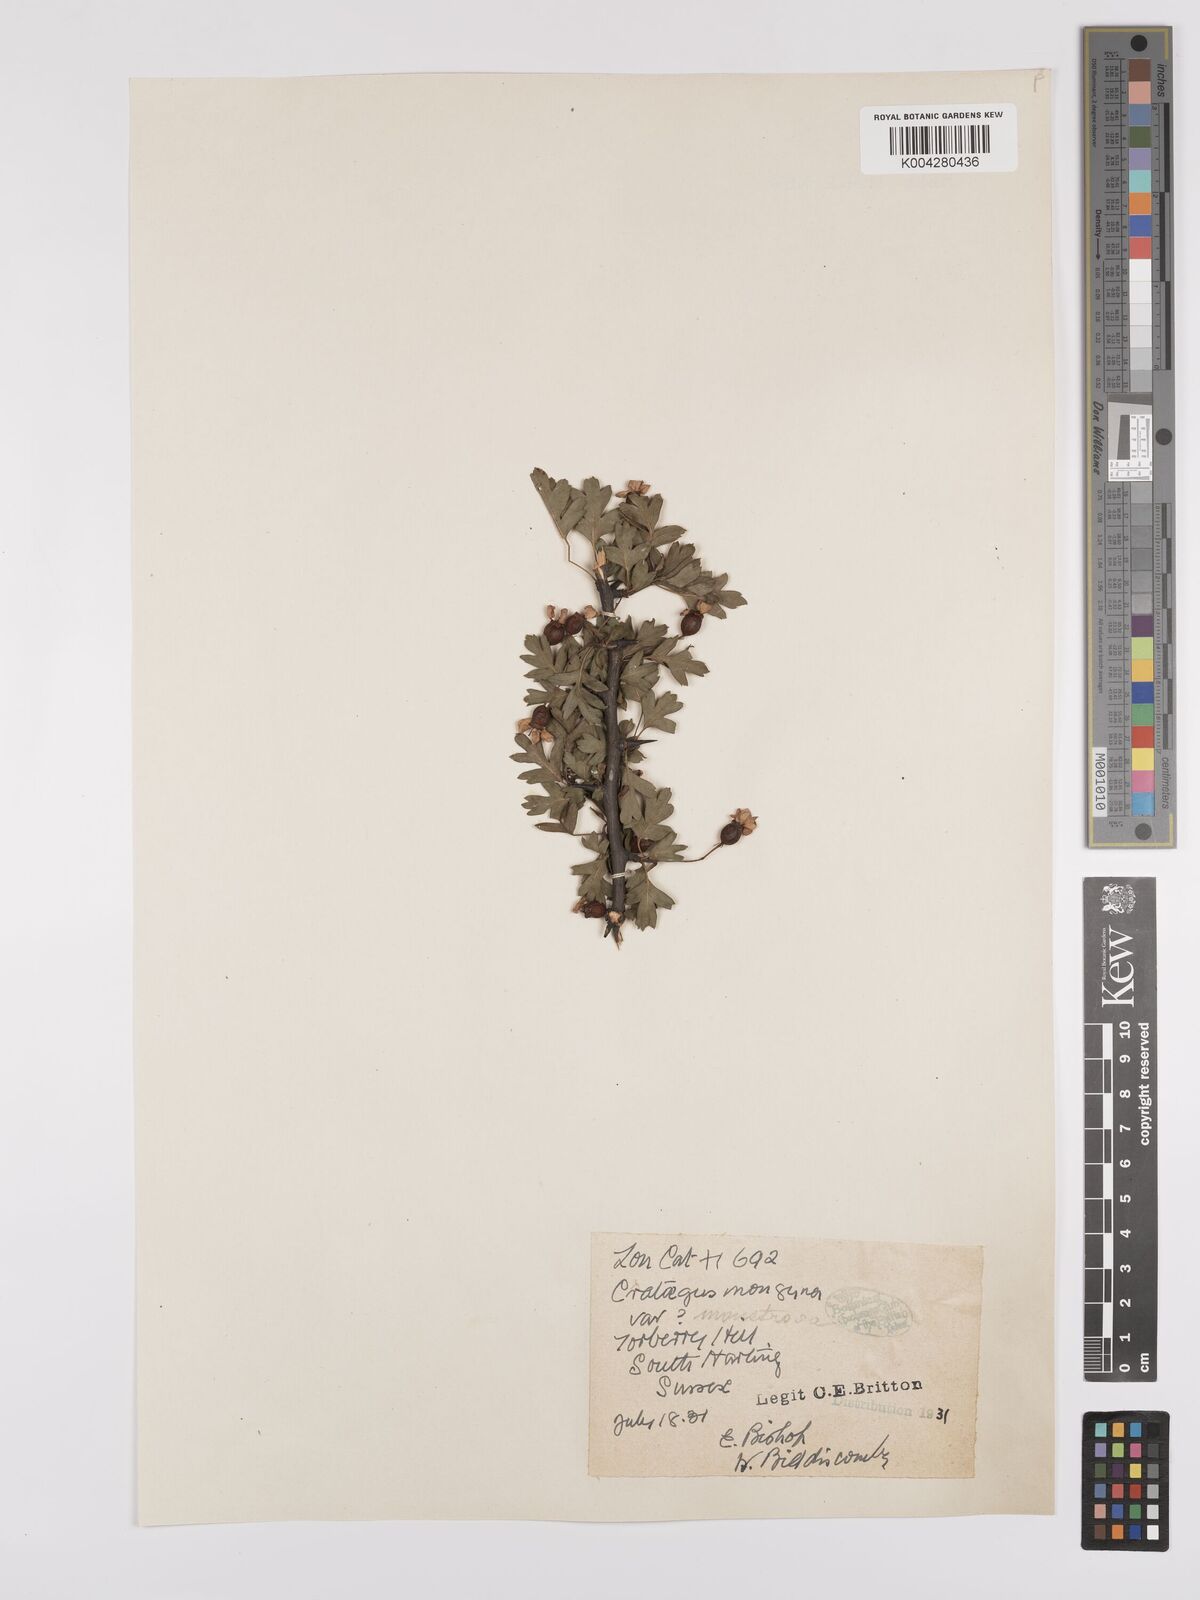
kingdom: Plantae
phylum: Tracheophyta
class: Magnoliopsida
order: Rosales
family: Rosaceae
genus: Crataegus
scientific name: Crataegus monogyna
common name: Hawthorn
